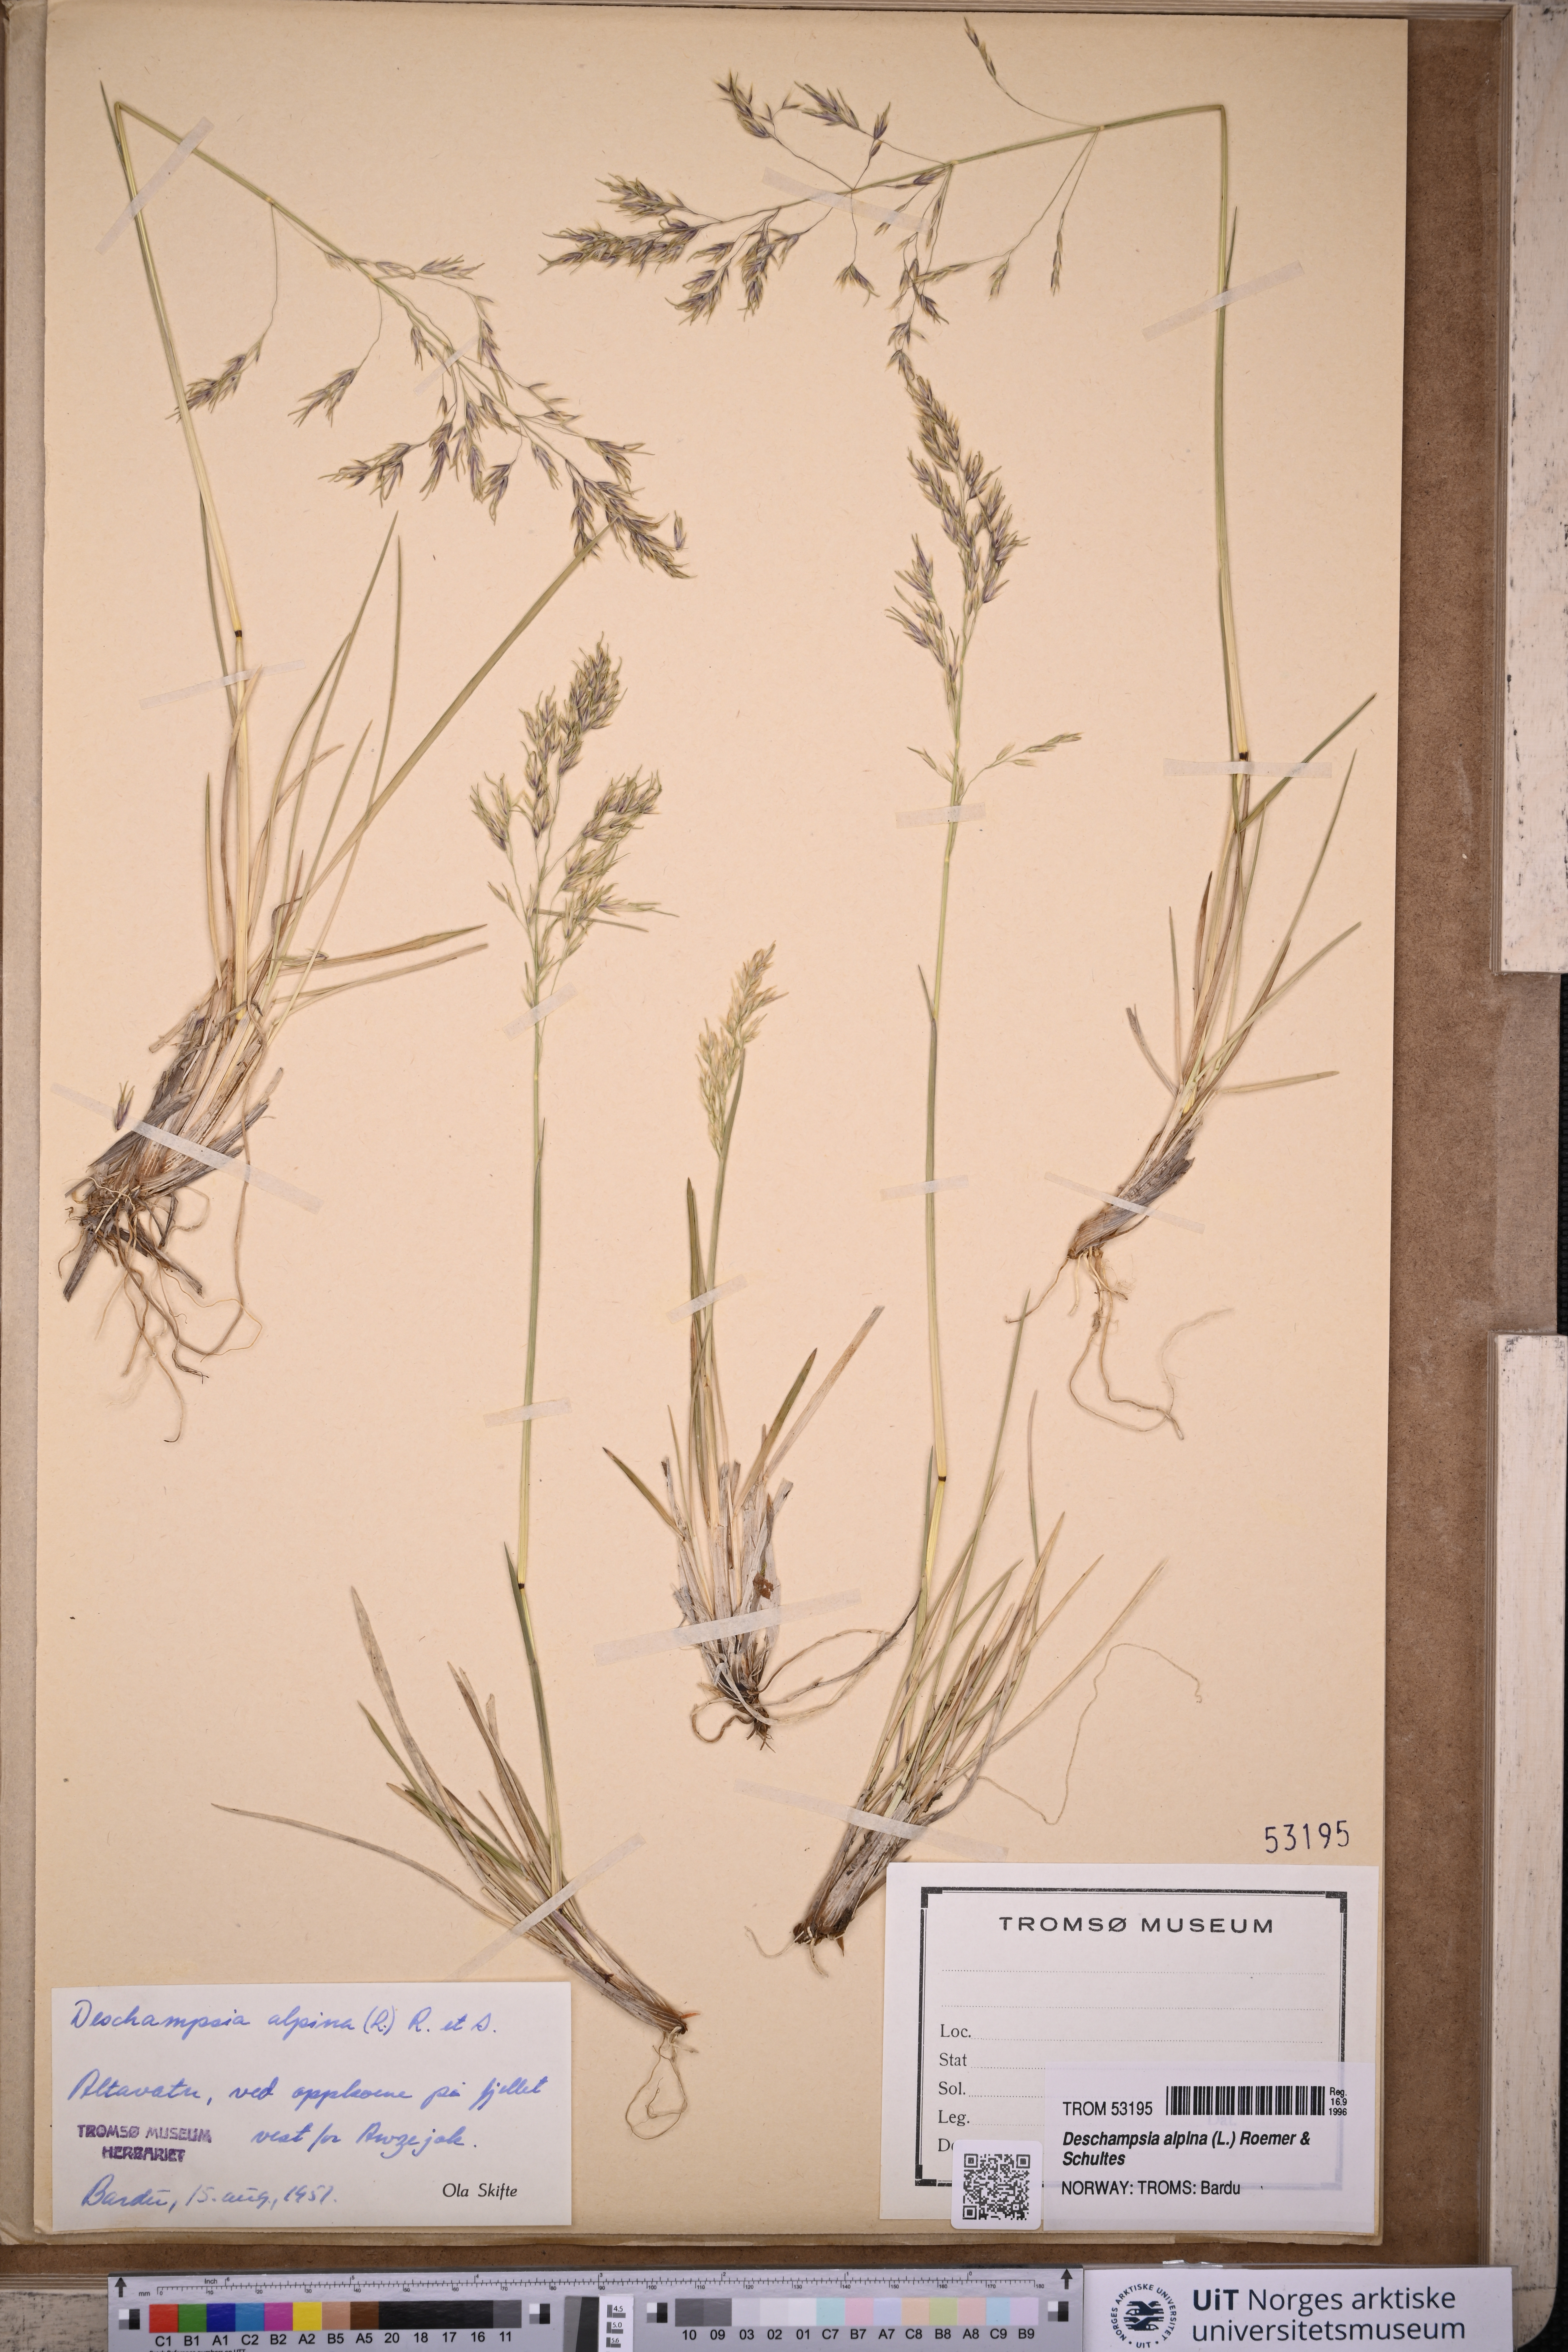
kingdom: Plantae
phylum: Tracheophyta
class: Liliopsida
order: Poales
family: Poaceae
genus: Deschampsia
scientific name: Deschampsia cespitosa
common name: Tufted hair-grass
